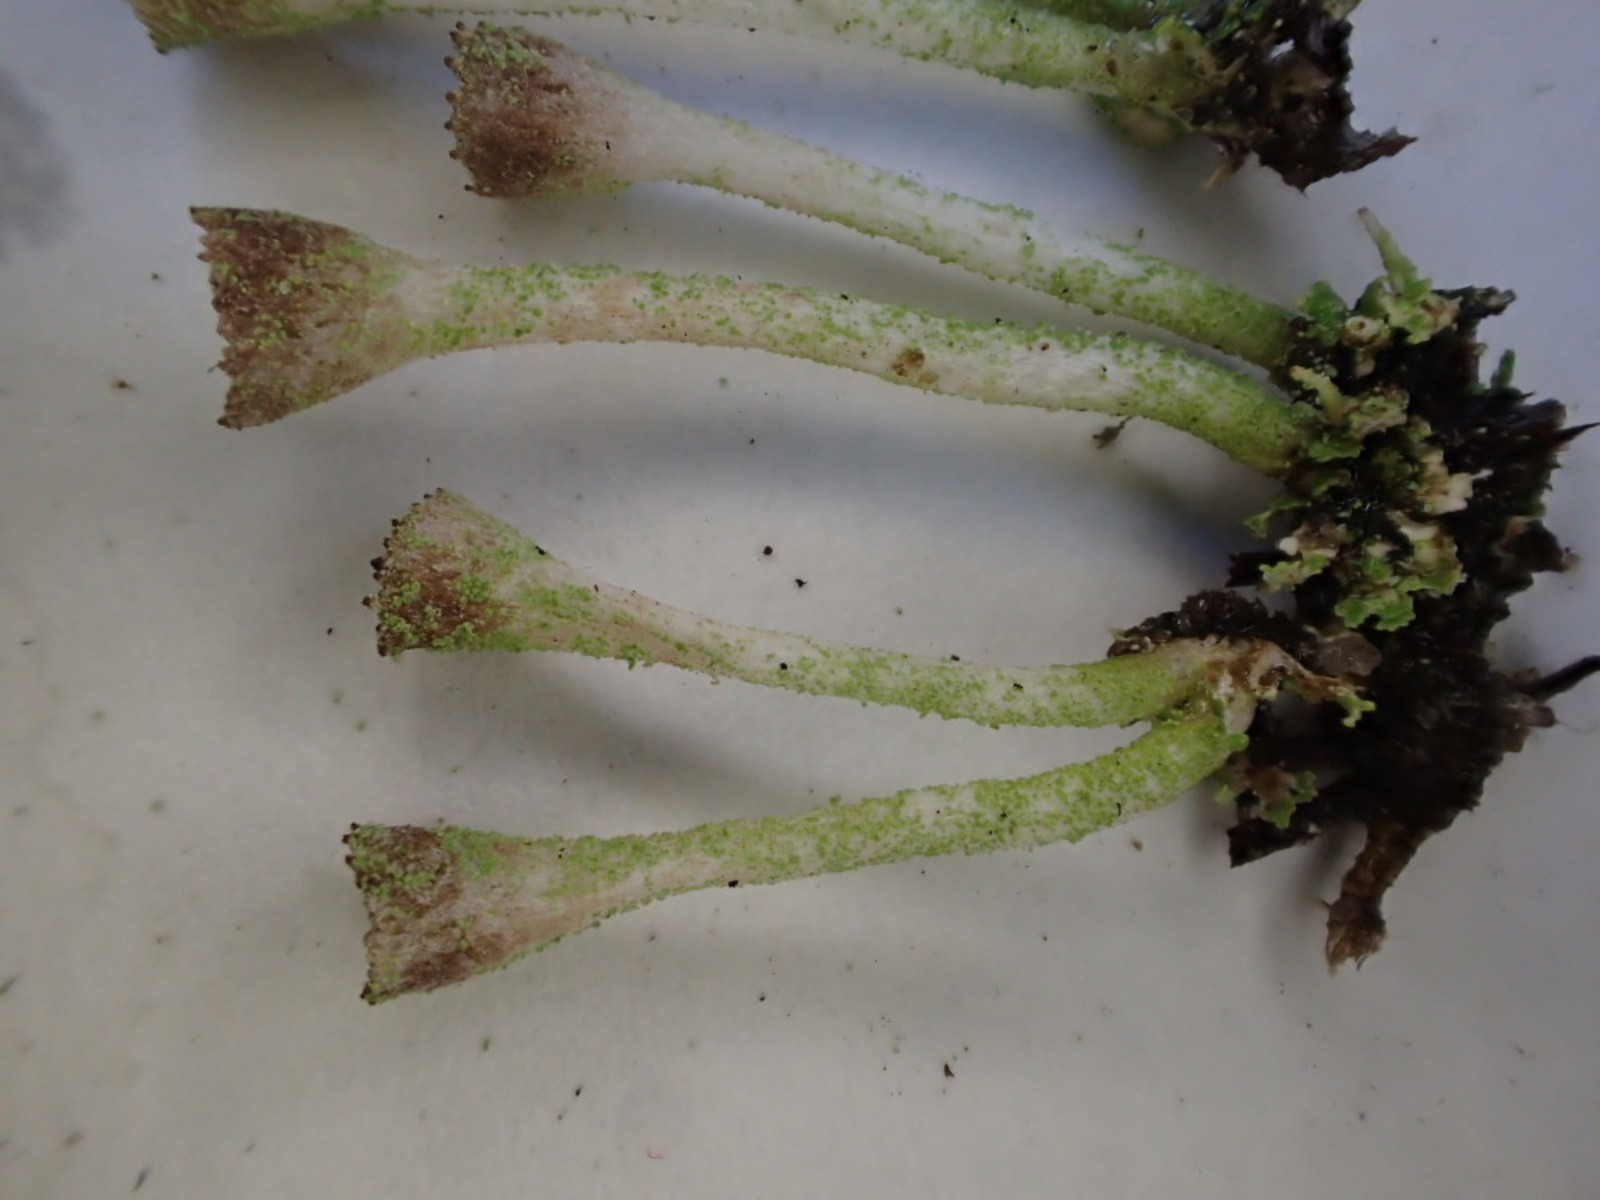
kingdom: Fungi
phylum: Ascomycota
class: Lecanoromycetes
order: Lecanorales
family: Cladoniaceae
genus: Cladonia
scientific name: Cladonia fimbriata
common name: bleggrøn bægerlav
